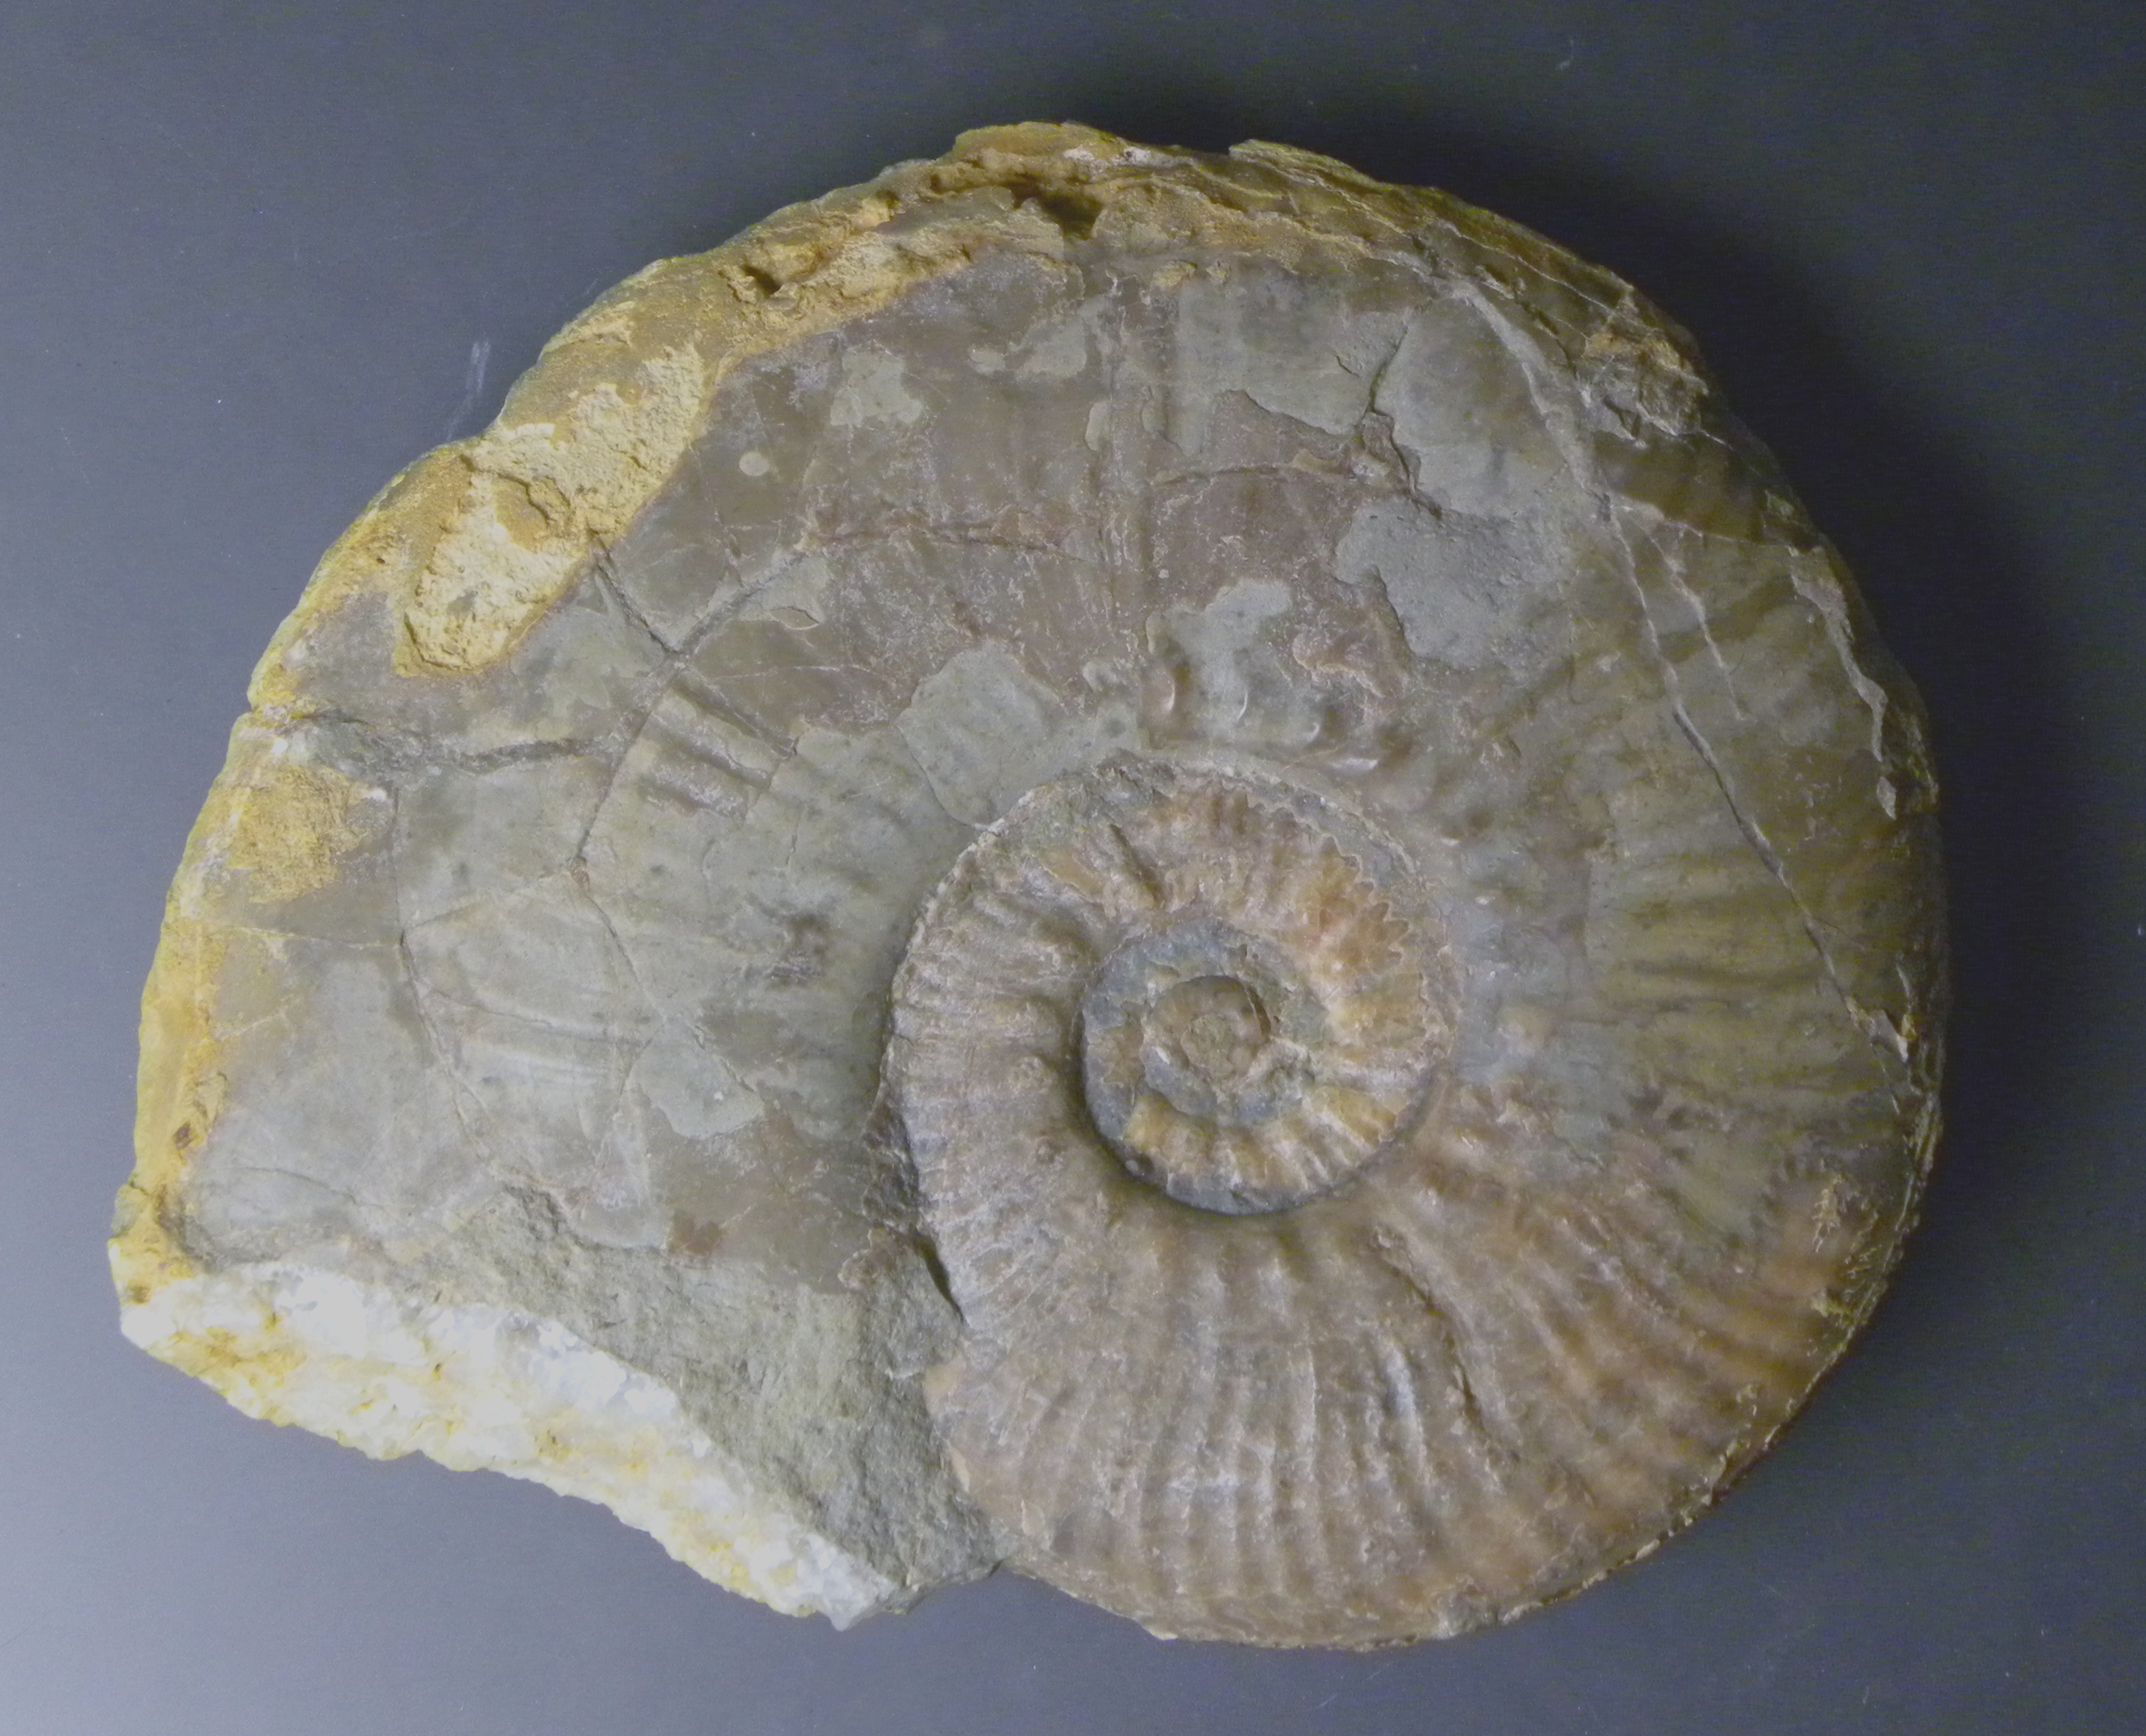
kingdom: Animalia
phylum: Mollusca
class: Cephalopoda
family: Phymatoceratidae
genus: Haugia
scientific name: Haugia jugosa
